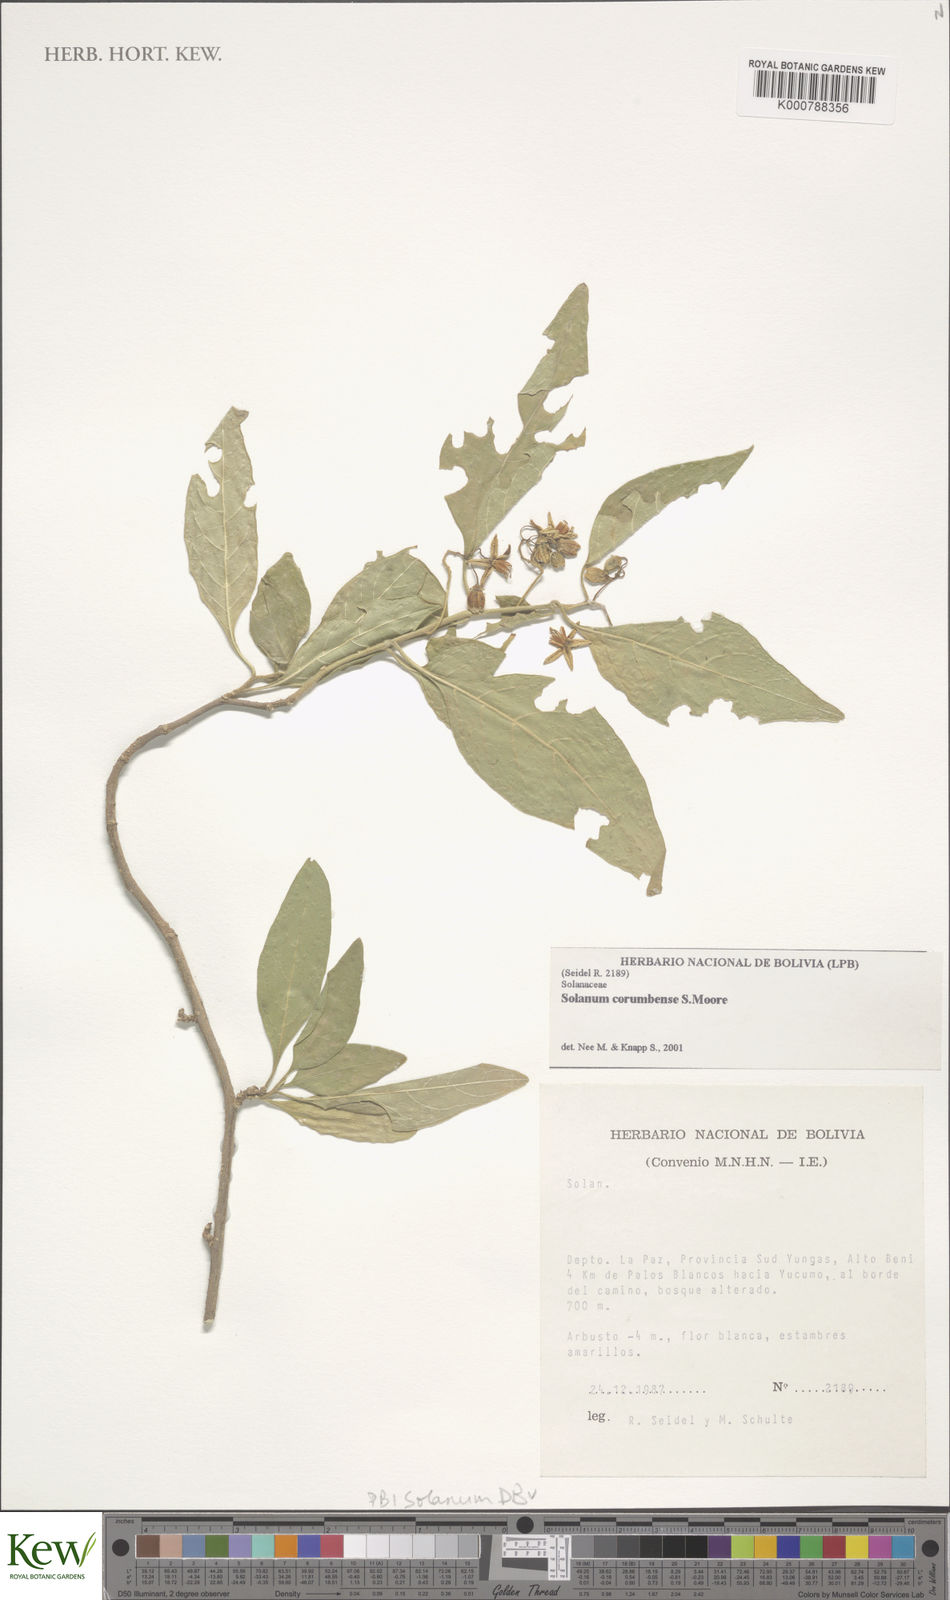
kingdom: Plantae
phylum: Tracheophyta
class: Magnoliopsida
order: Solanales
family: Solanaceae
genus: Solanum
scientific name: Solanum corumbense
